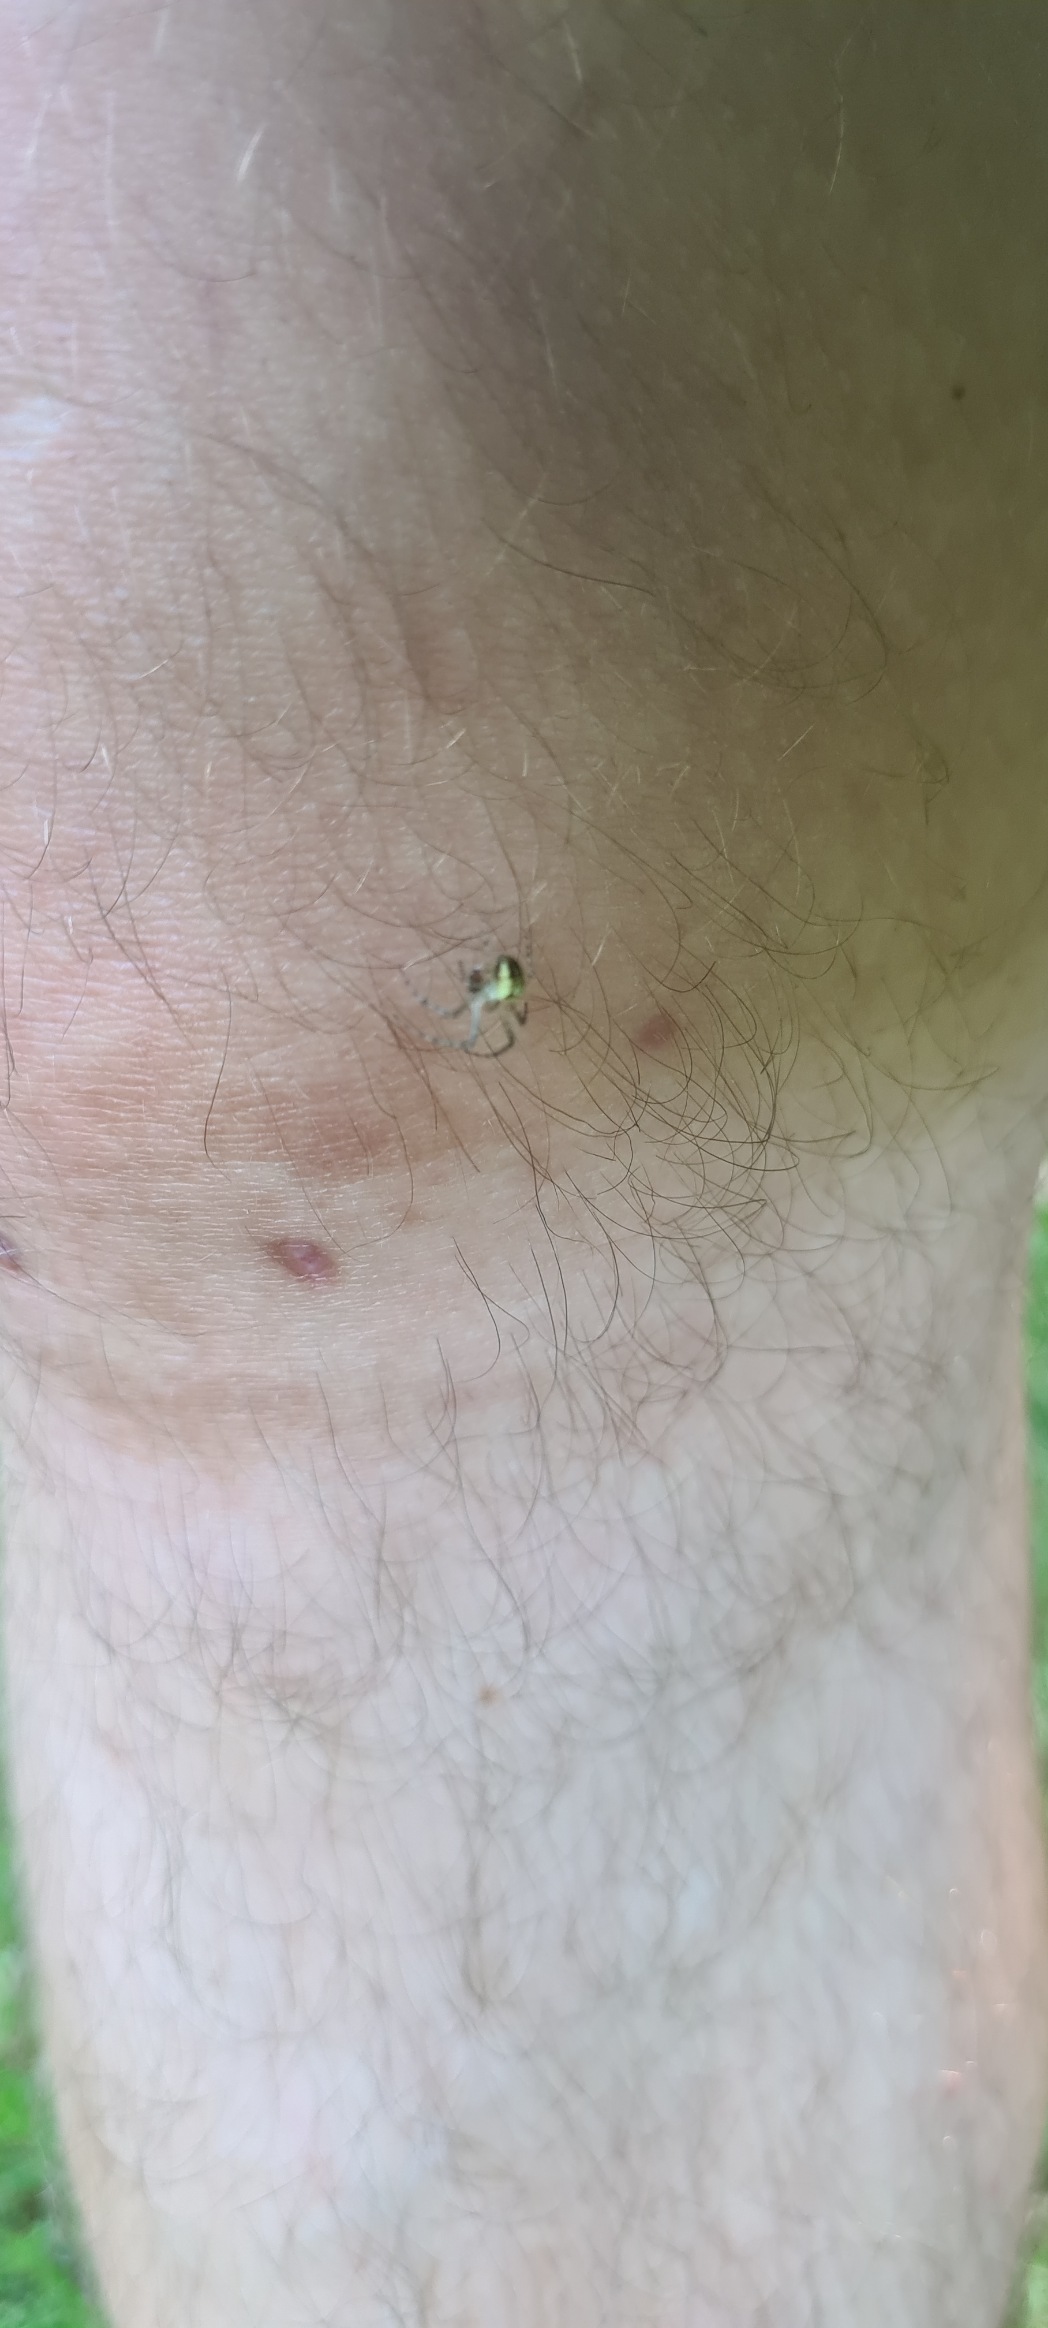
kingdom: Animalia
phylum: Arthropoda
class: Arachnida
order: Araneae
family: Tetragnathidae
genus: Metellina
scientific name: Metellina
